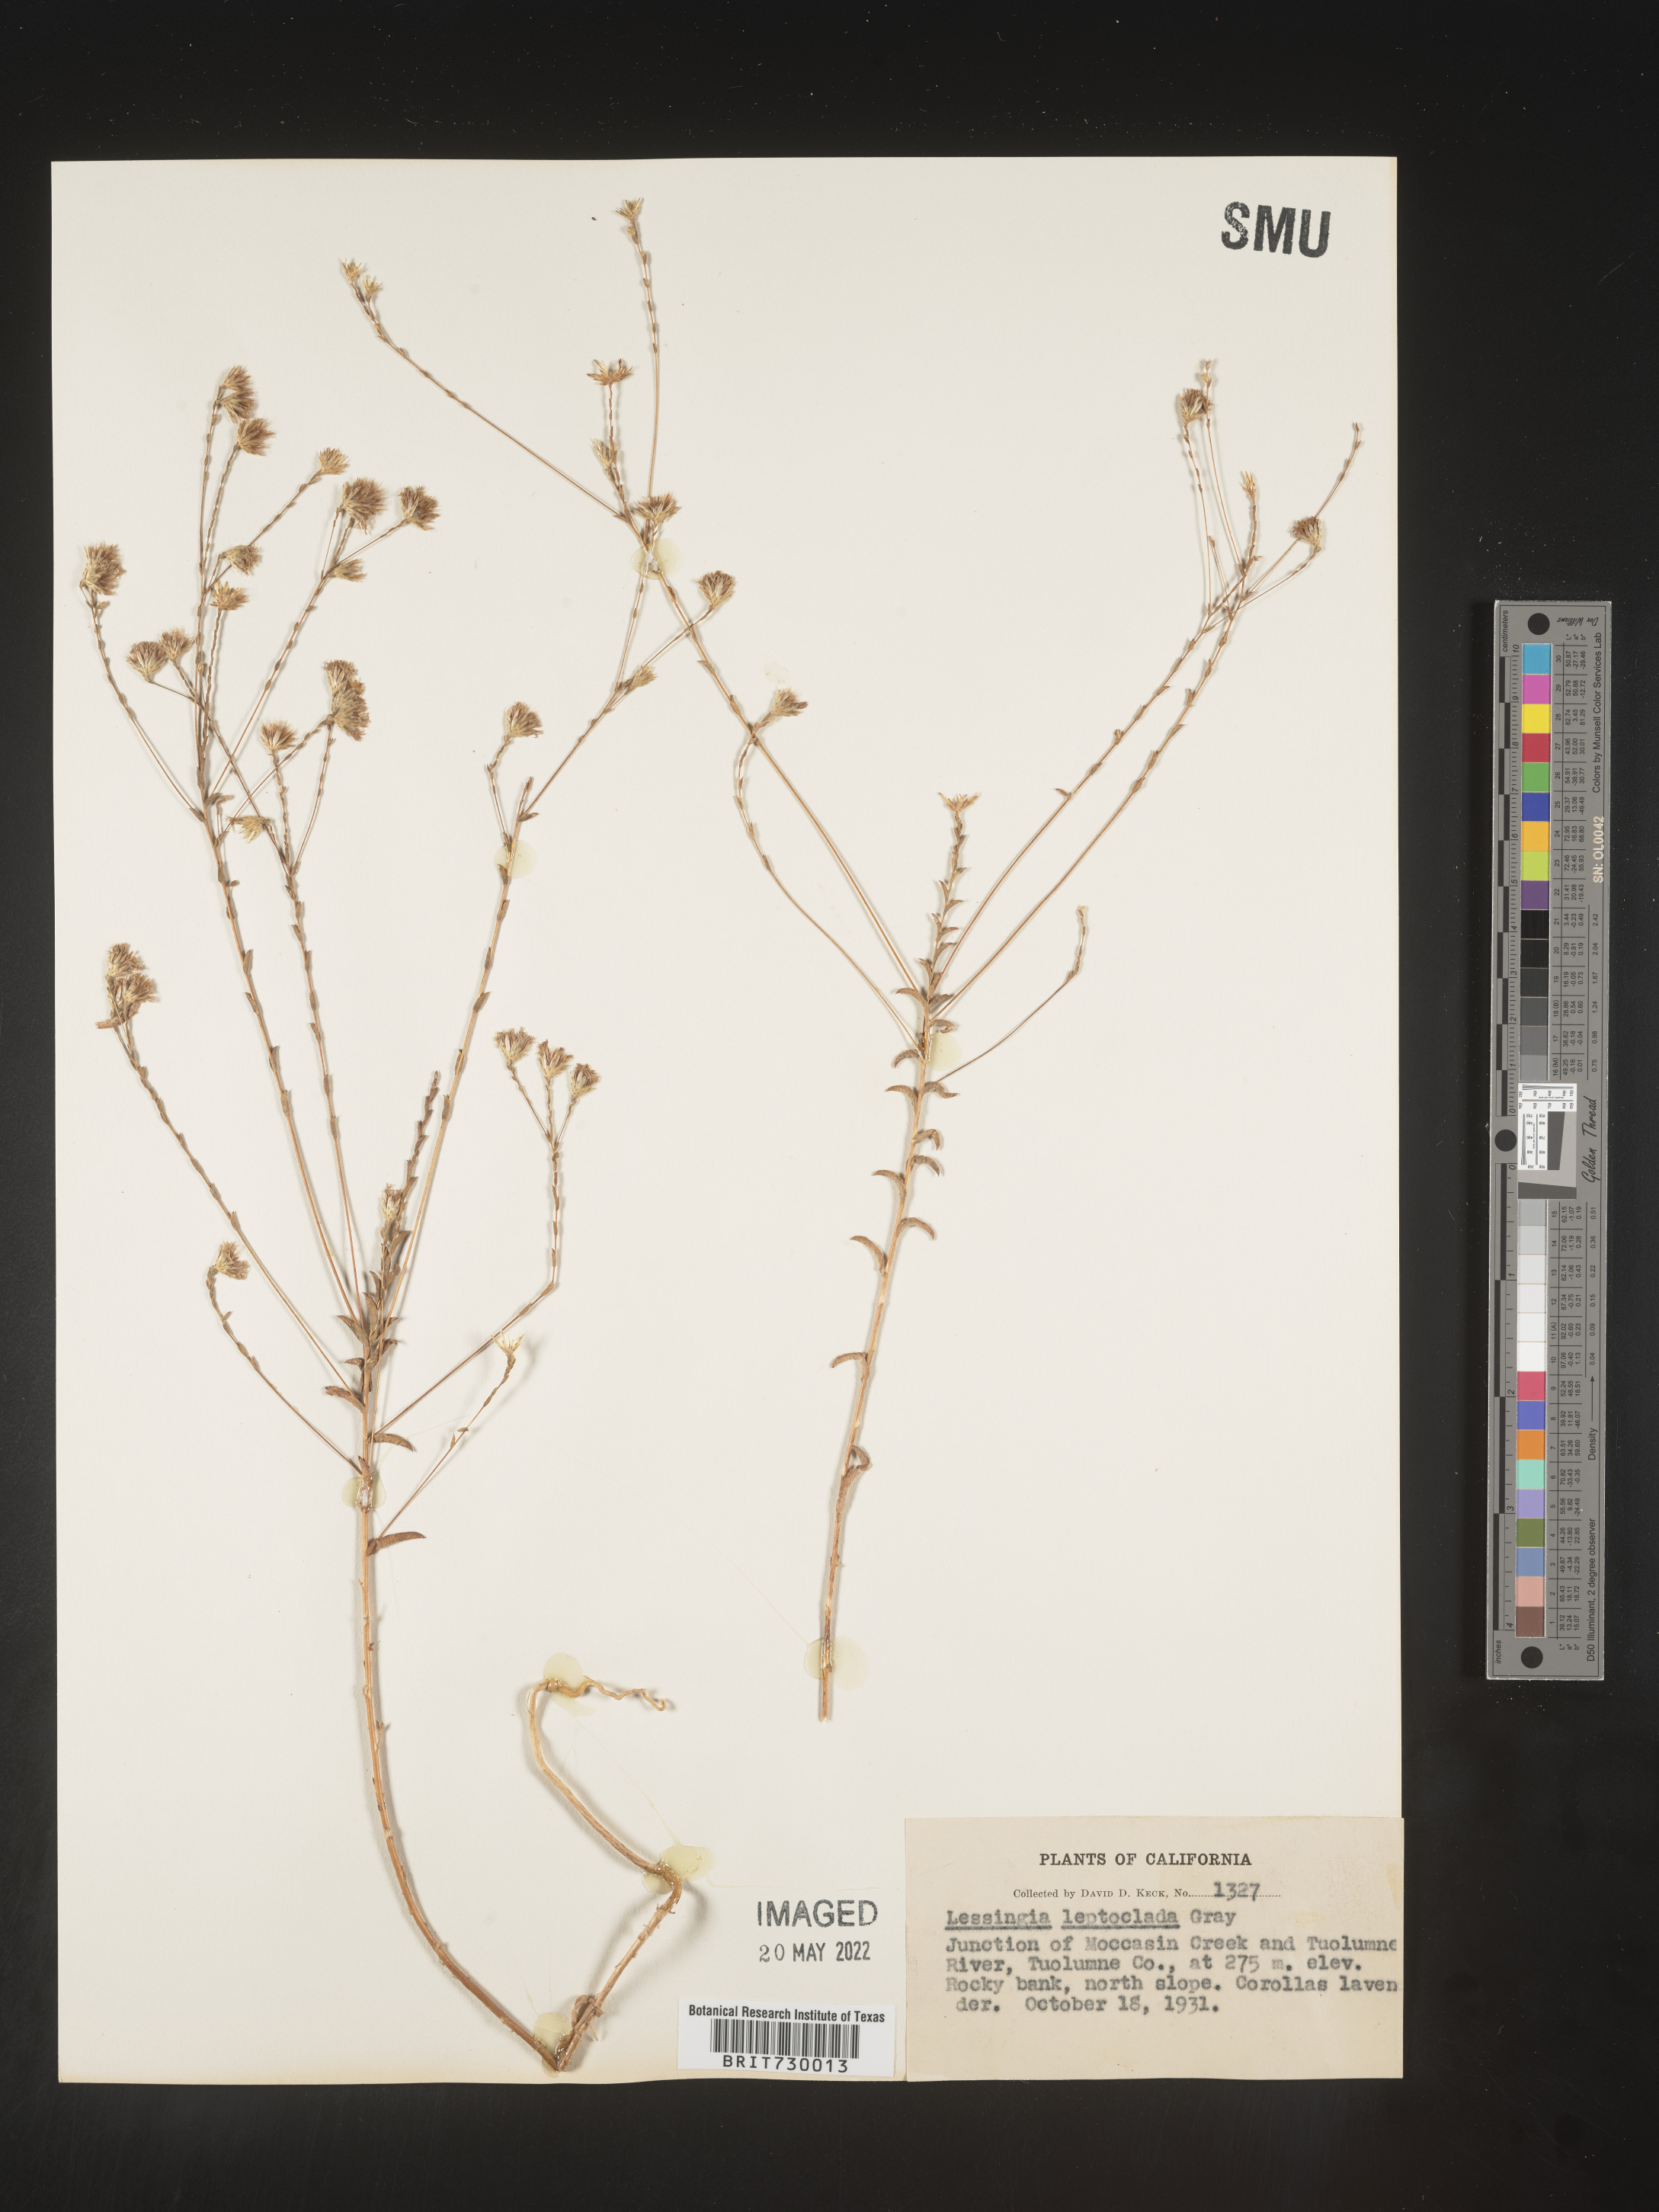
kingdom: Plantae
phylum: Tracheophyta
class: Magnoliopsida
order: Asterales
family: Asteraceae
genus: Lessingia
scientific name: Lessingia
